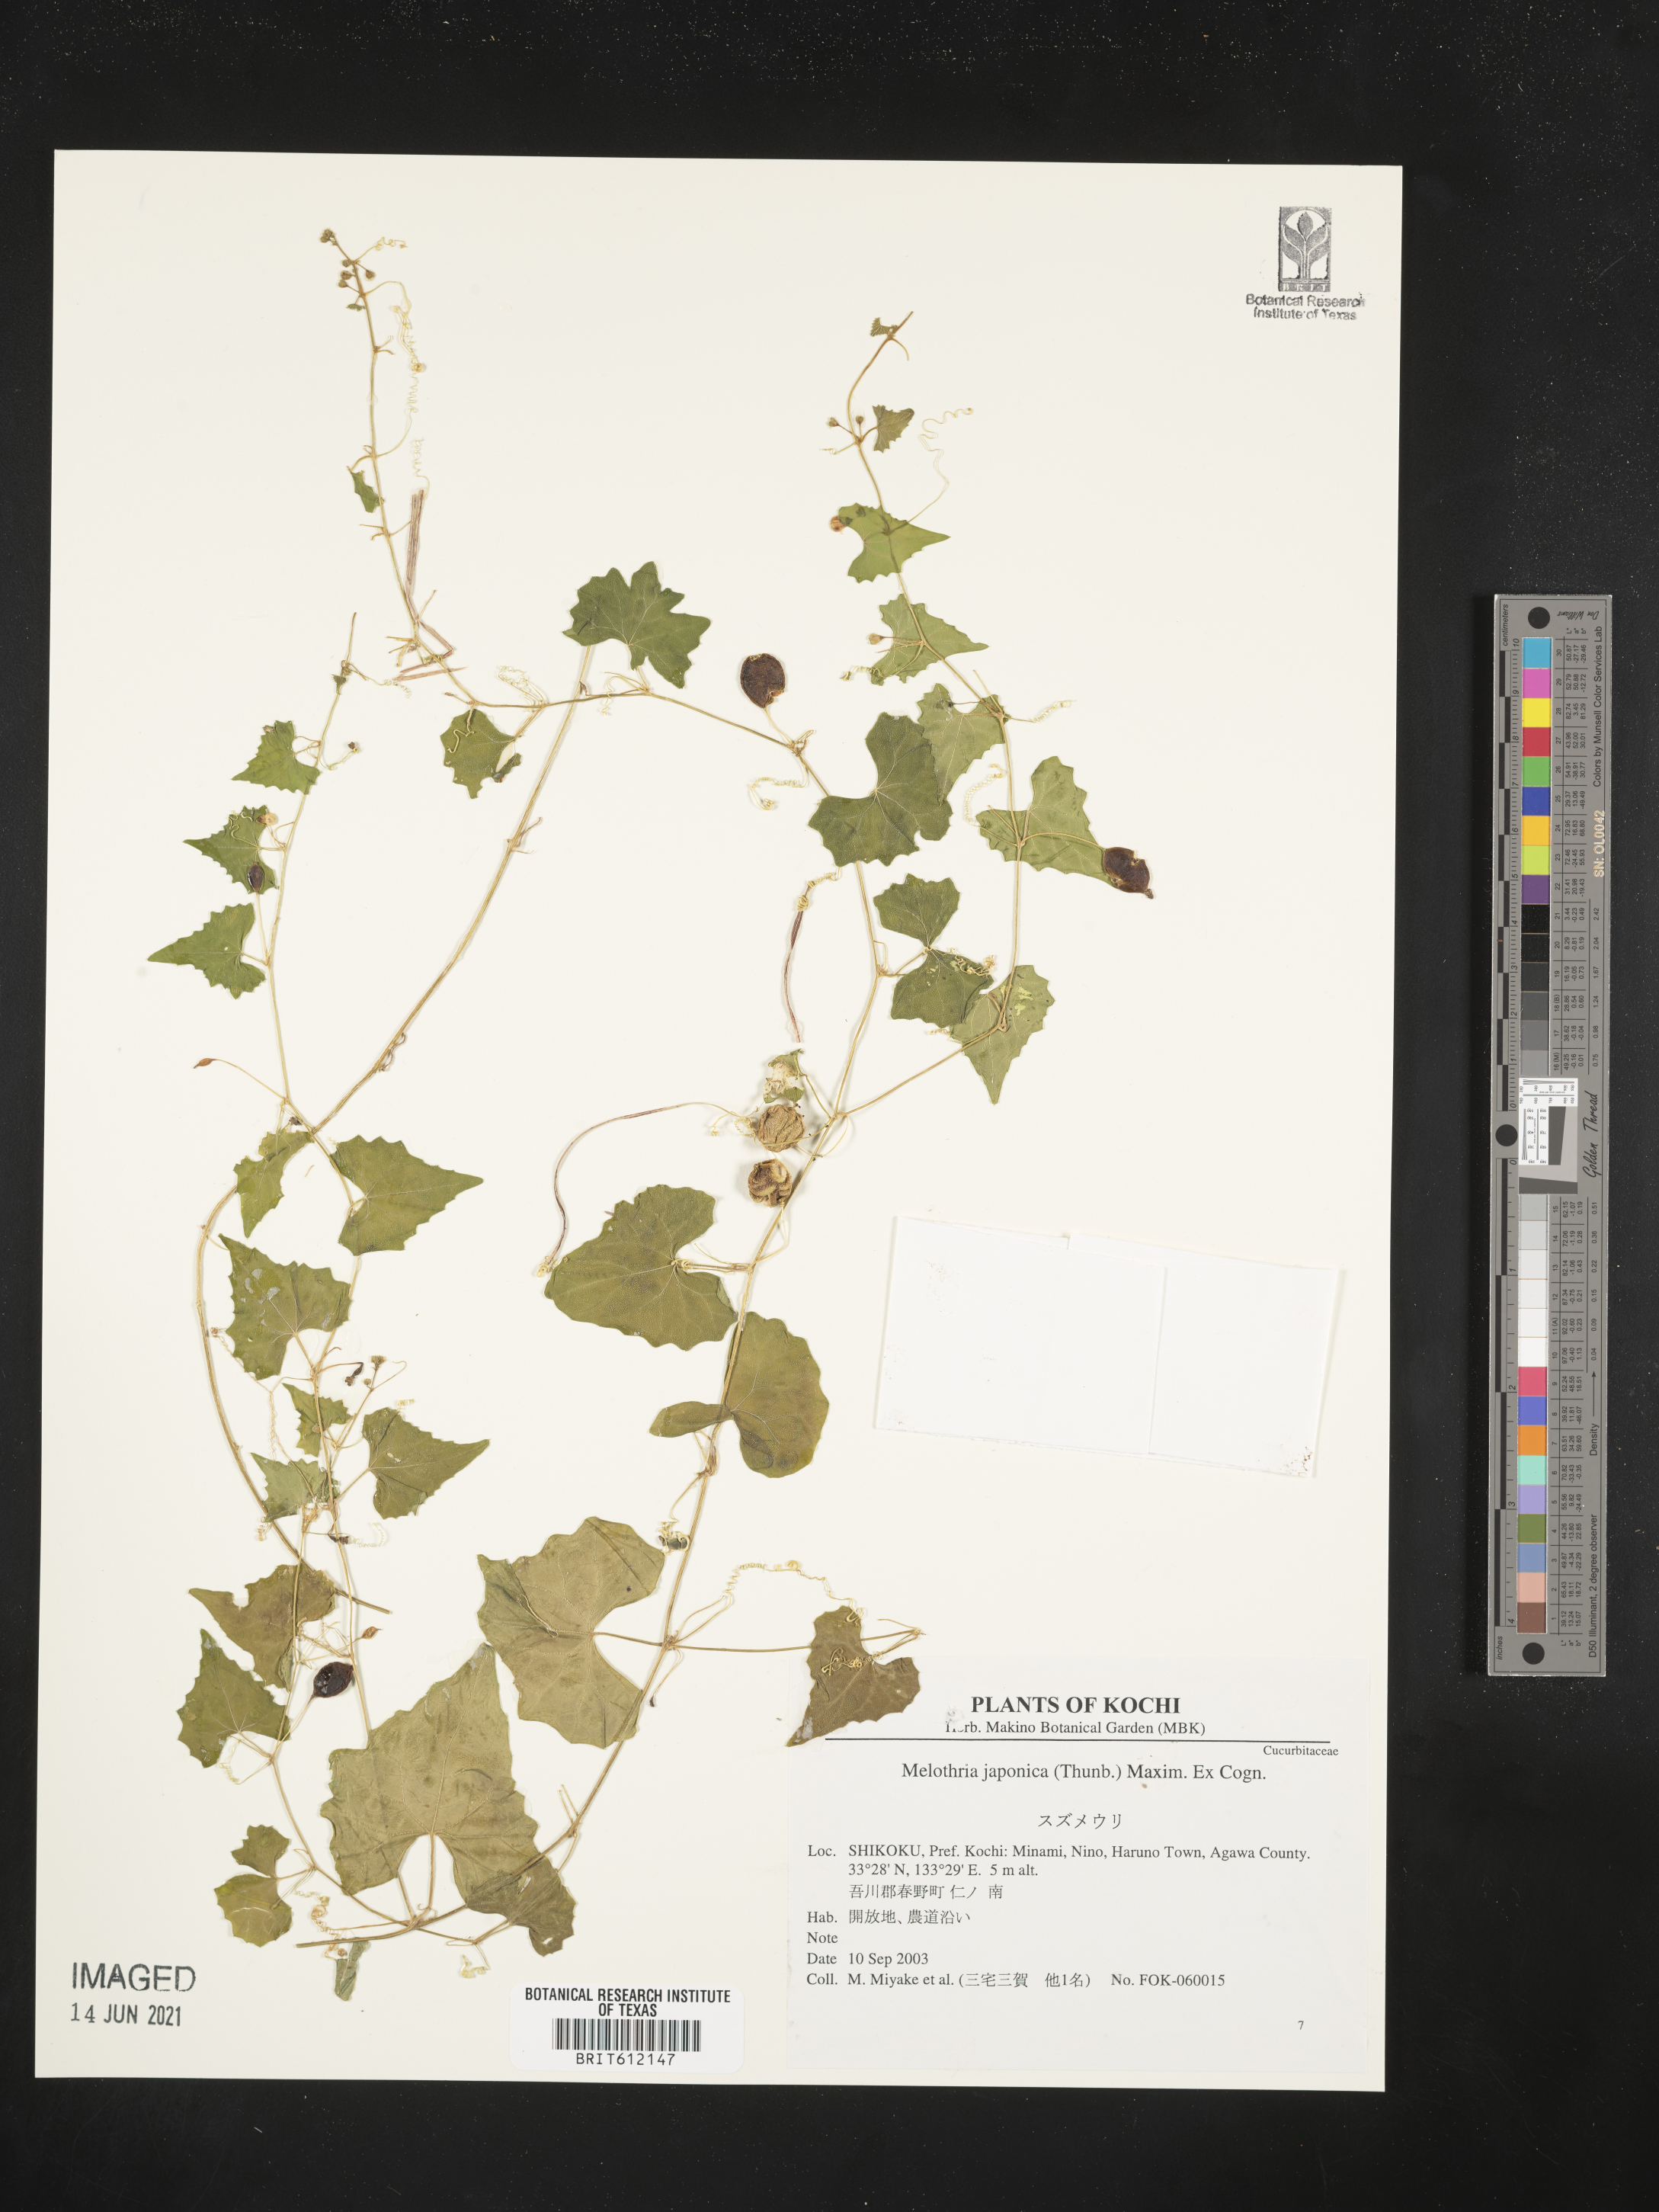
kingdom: Plantae
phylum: Tracheophyta
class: Magnoliopsida
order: Cucurbitales
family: Cucurbitaceae
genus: Zehneria
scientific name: Zehneria japonica
